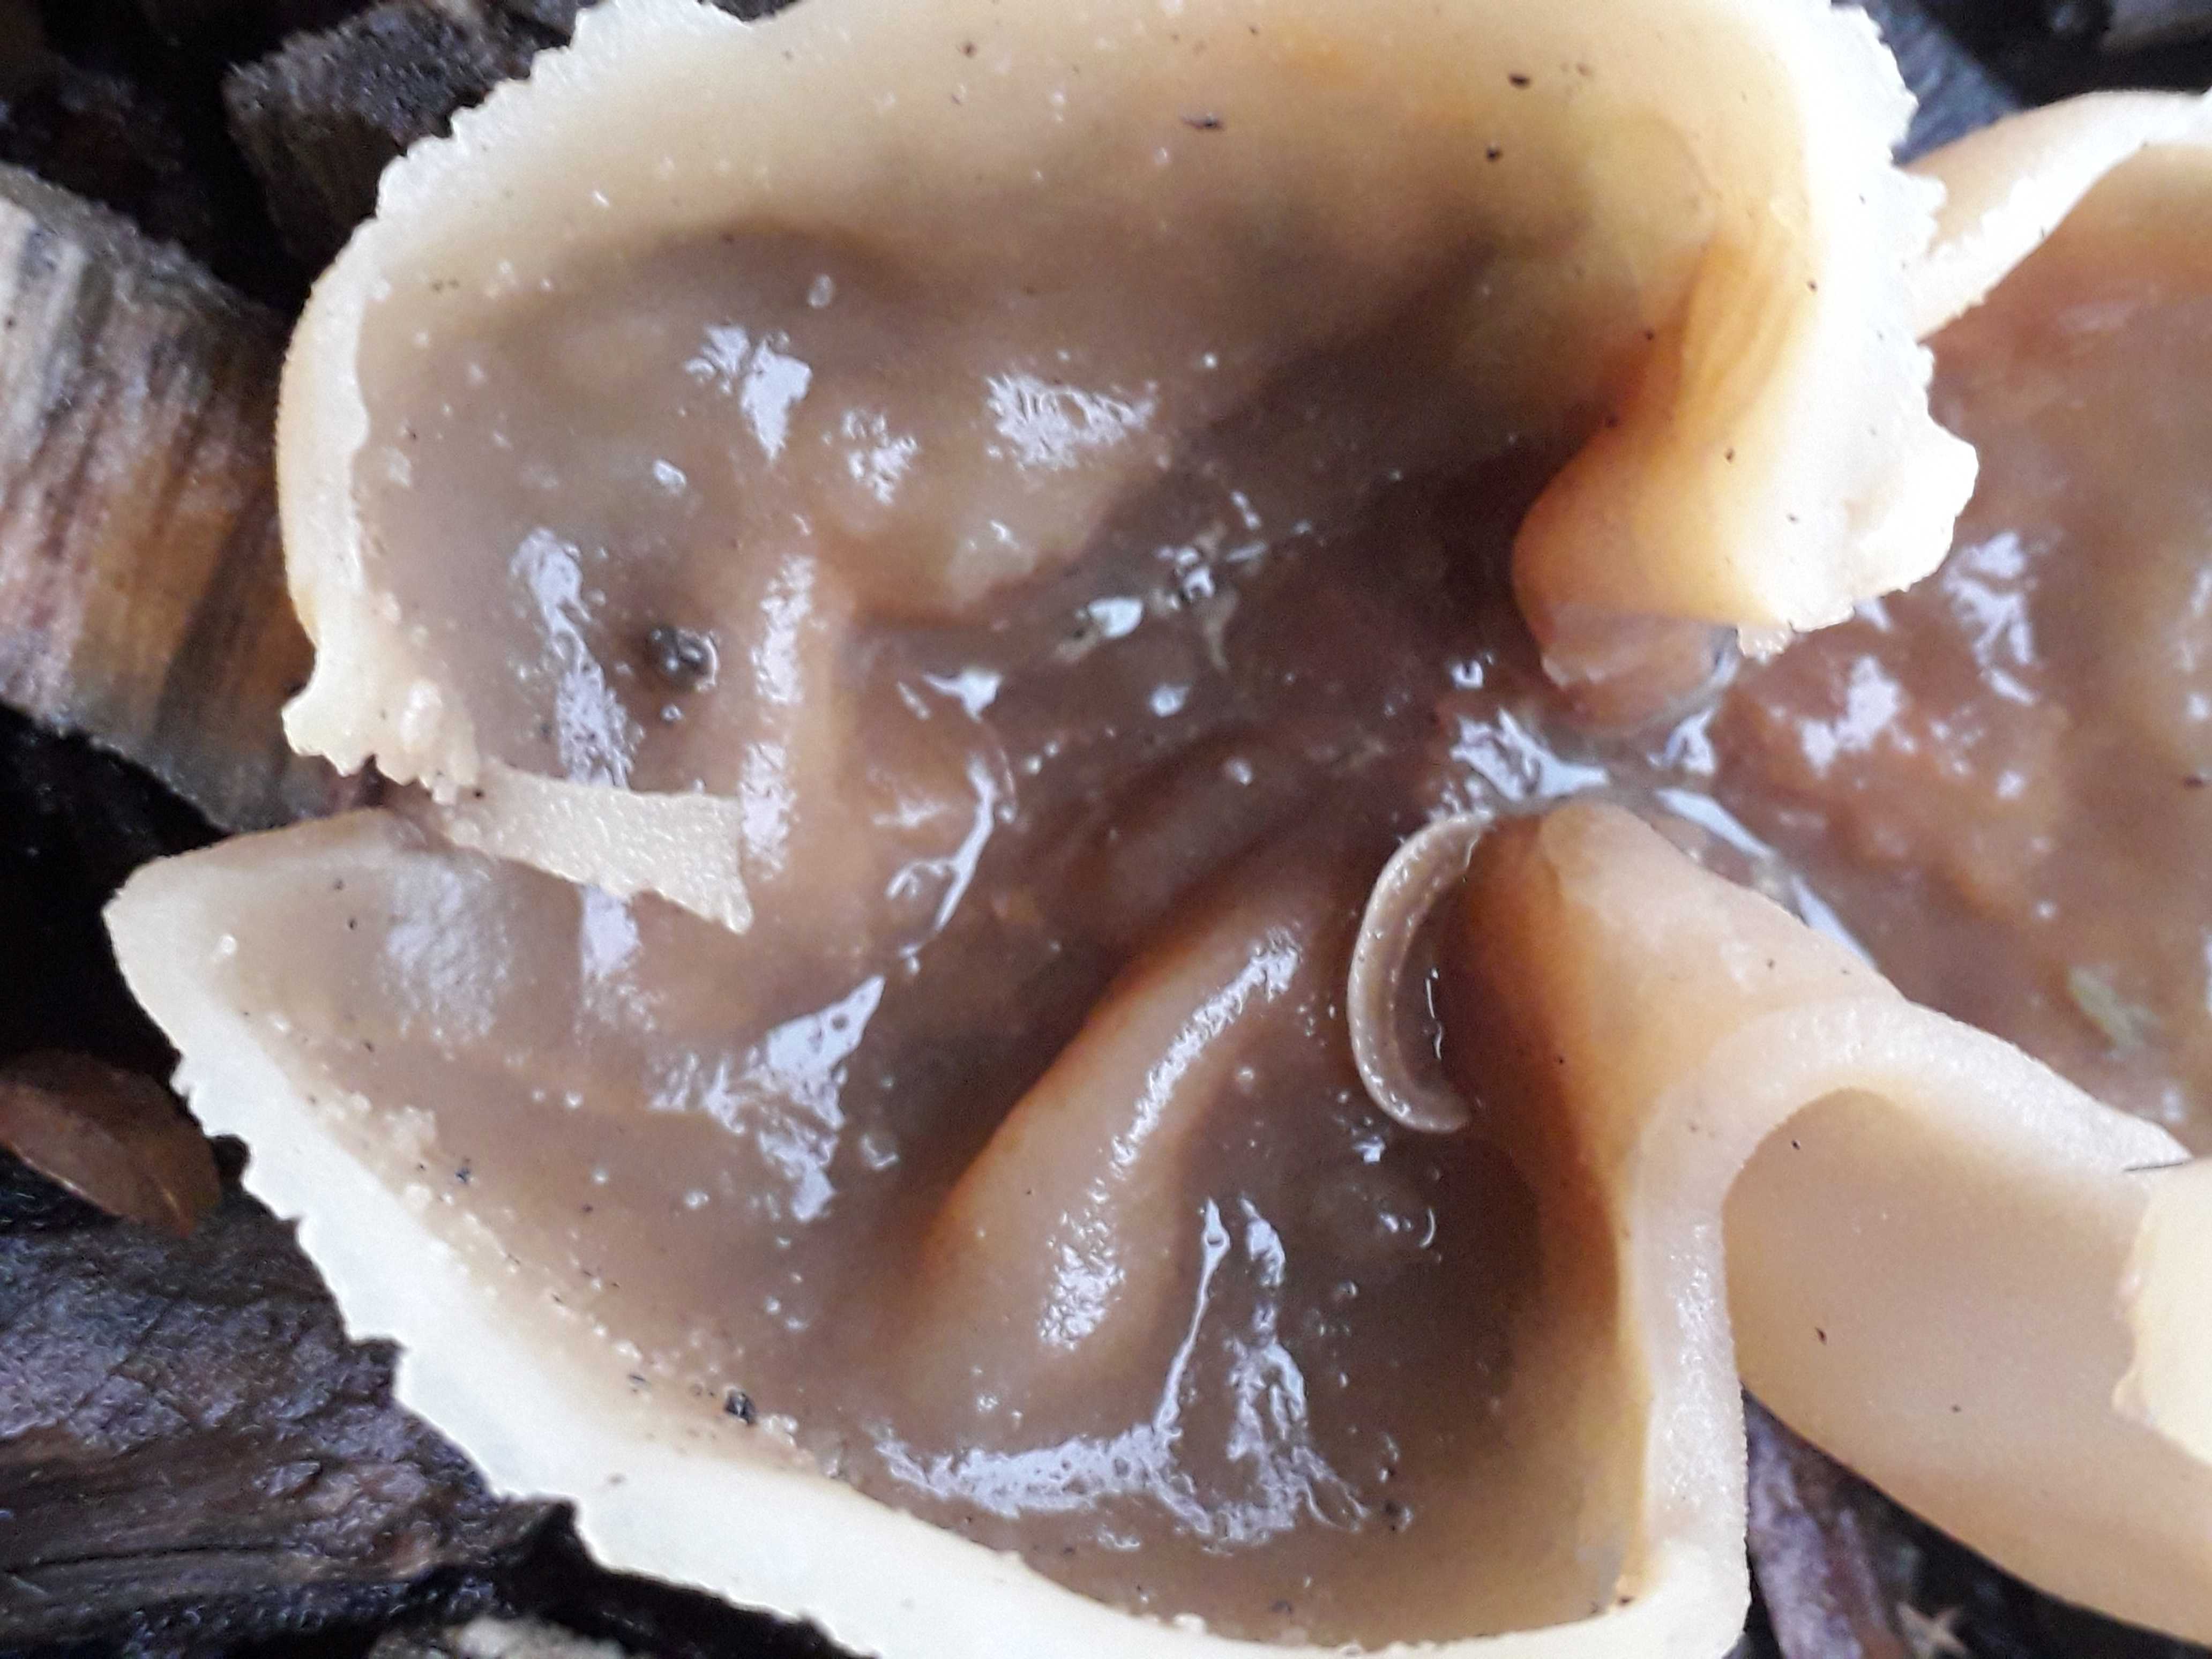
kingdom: Fungi
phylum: Ascomycota
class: Pezizomycetes
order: Pezizales
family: Pezizaceae
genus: Peziza
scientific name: Peziza
